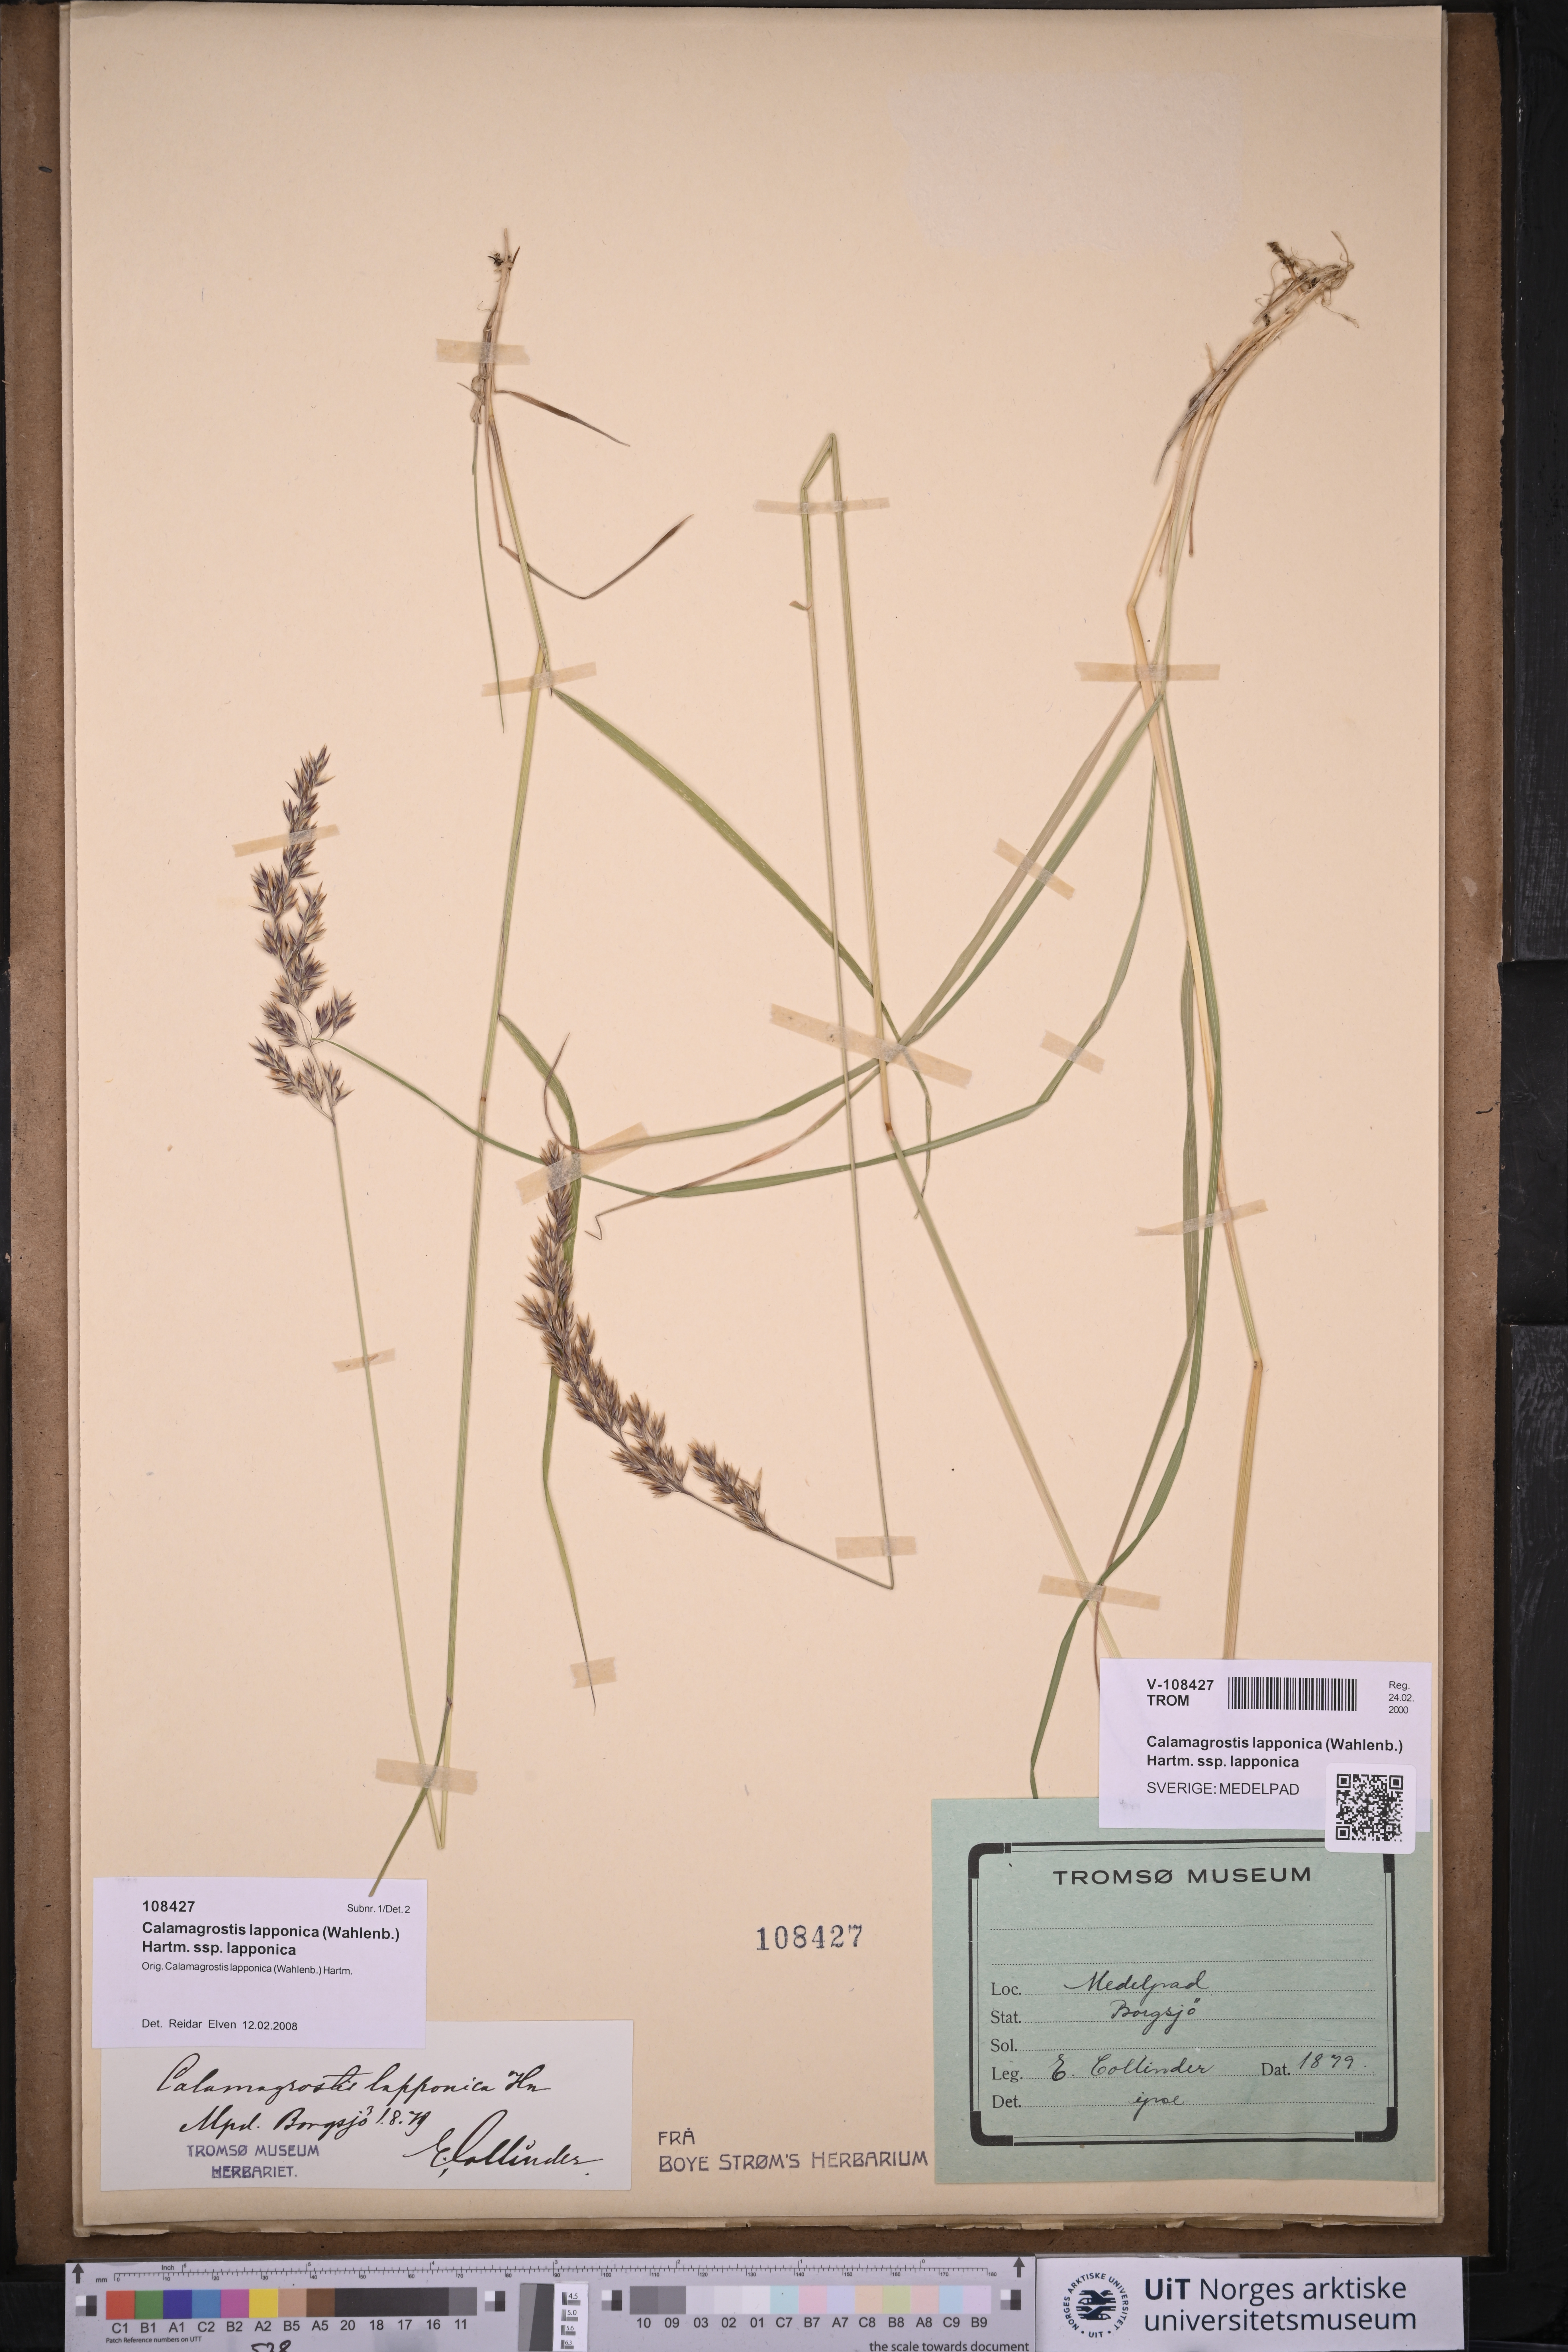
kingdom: Plantae
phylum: Tracheophyta
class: Liliopsida
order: Poales
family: Poaceae
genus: Calamagrostis
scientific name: Calamagrostis lapponica
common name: Lapland reedgrass
